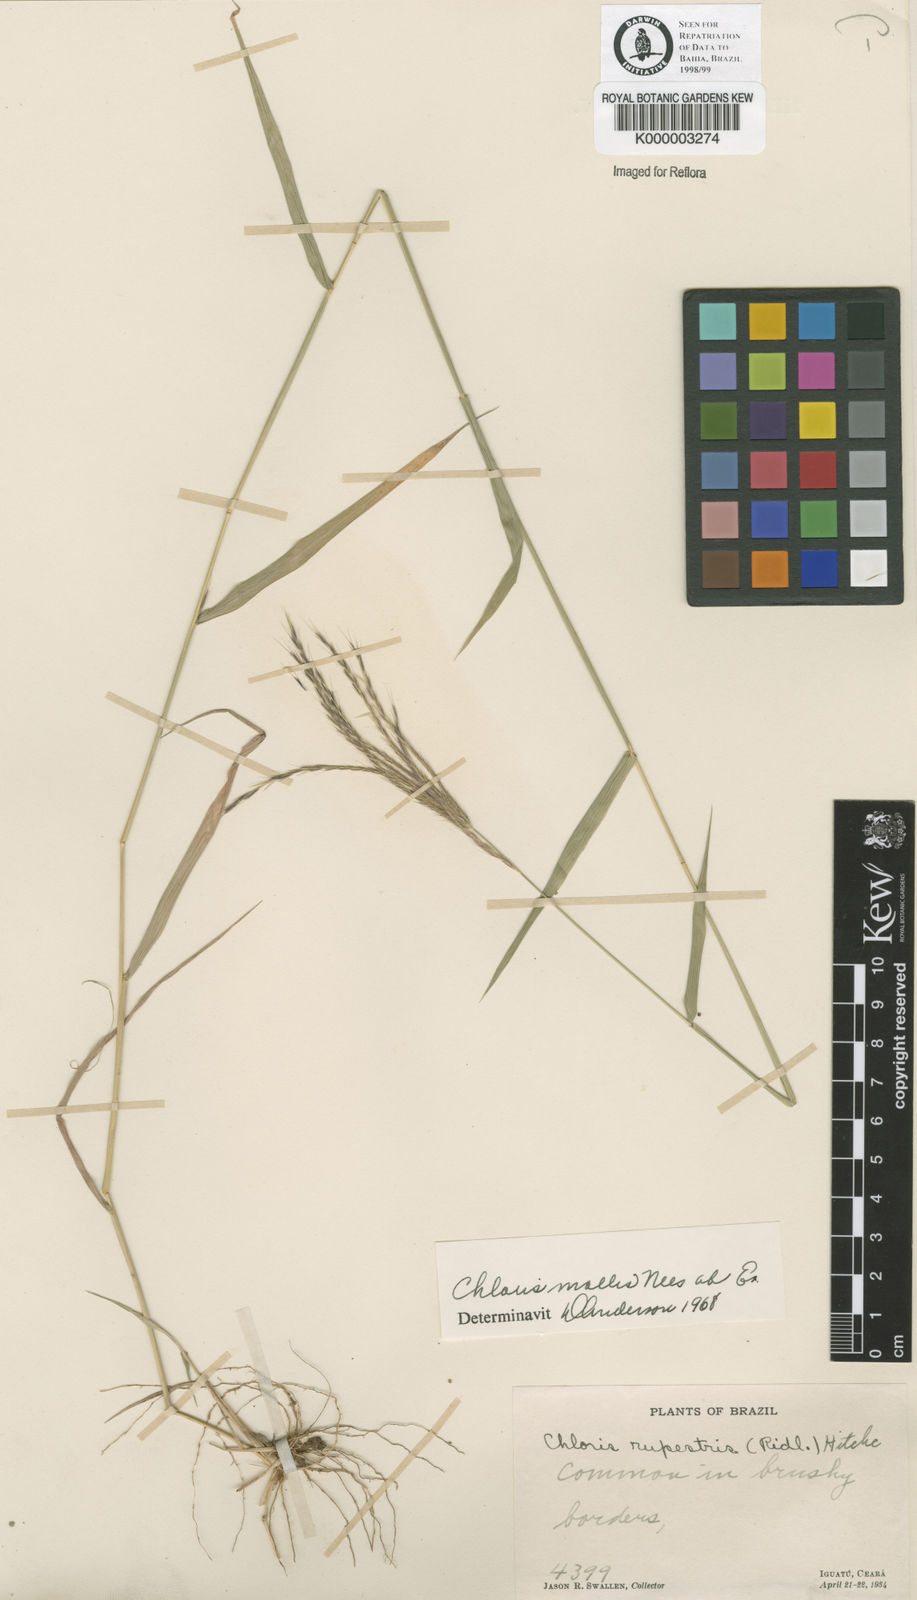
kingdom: Plantae
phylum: Tracheophyta
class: Liliopsida
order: Poales
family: Poaceae
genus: Leptochloa
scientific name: Leptochloa anisopoda
